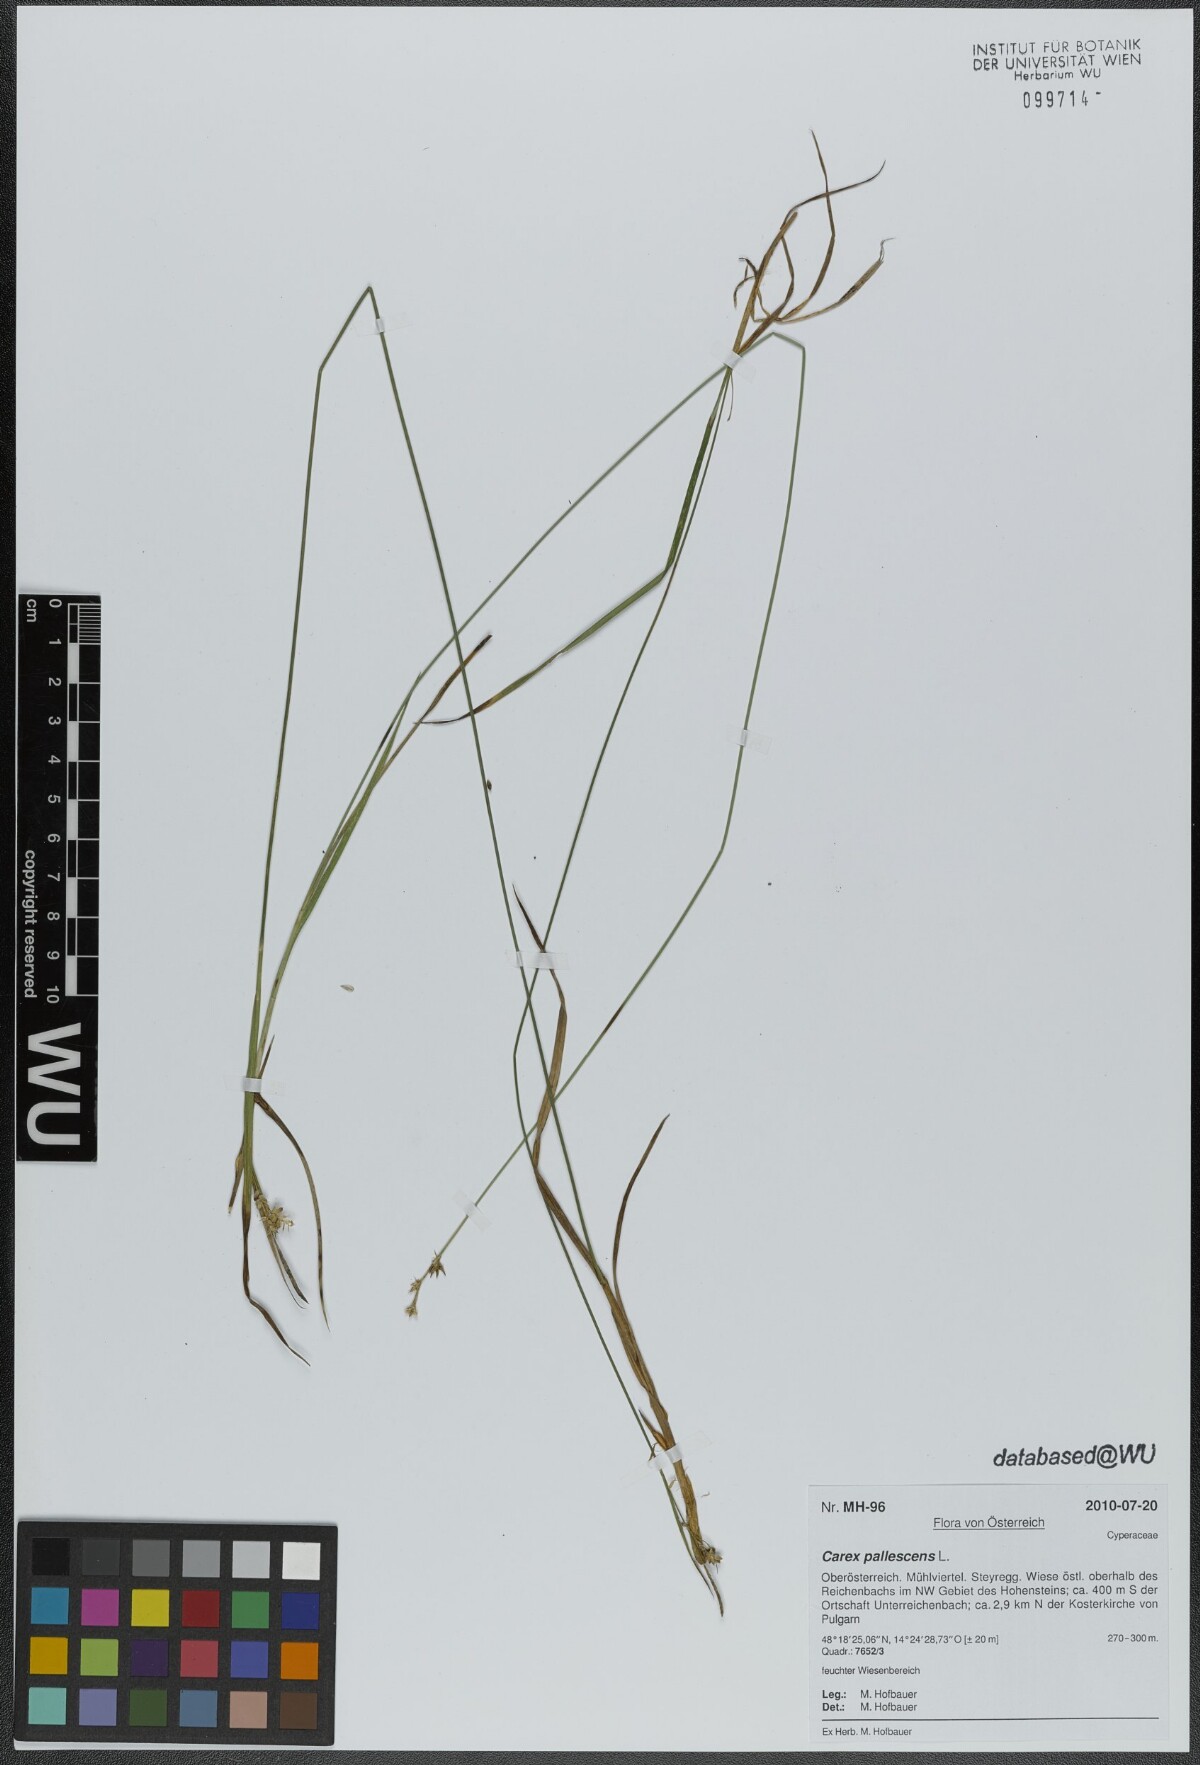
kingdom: Plantae
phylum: Tracheophyta
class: Liliopsida
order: Poales
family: Cyperaceae
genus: Carex
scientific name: Carex pallescens
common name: Pale sedge
